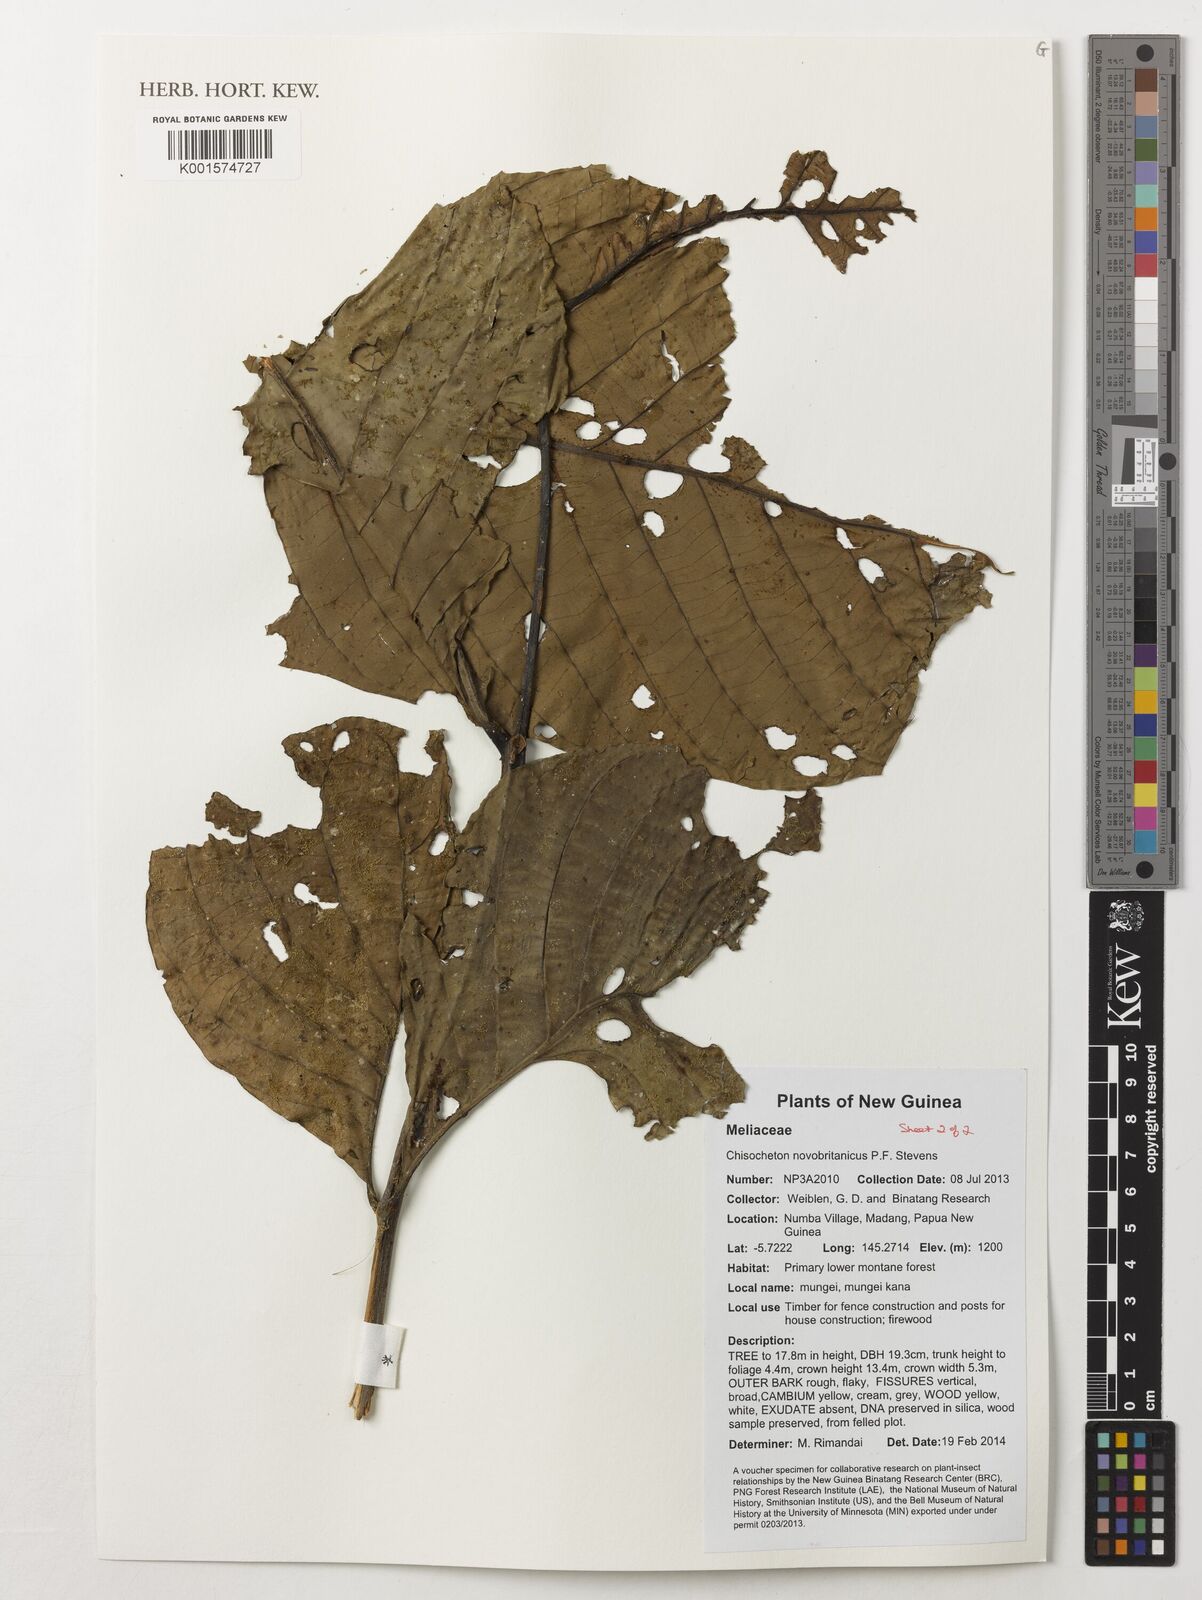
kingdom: Plantae
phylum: Tracheophyta
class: Magnoliopsida
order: Sapindales
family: Meliaceae
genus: Chisocheton
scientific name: Chisocheton novobritannicus
